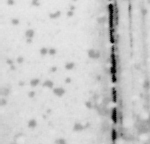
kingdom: Animalia
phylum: Chordata
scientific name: Chordata
